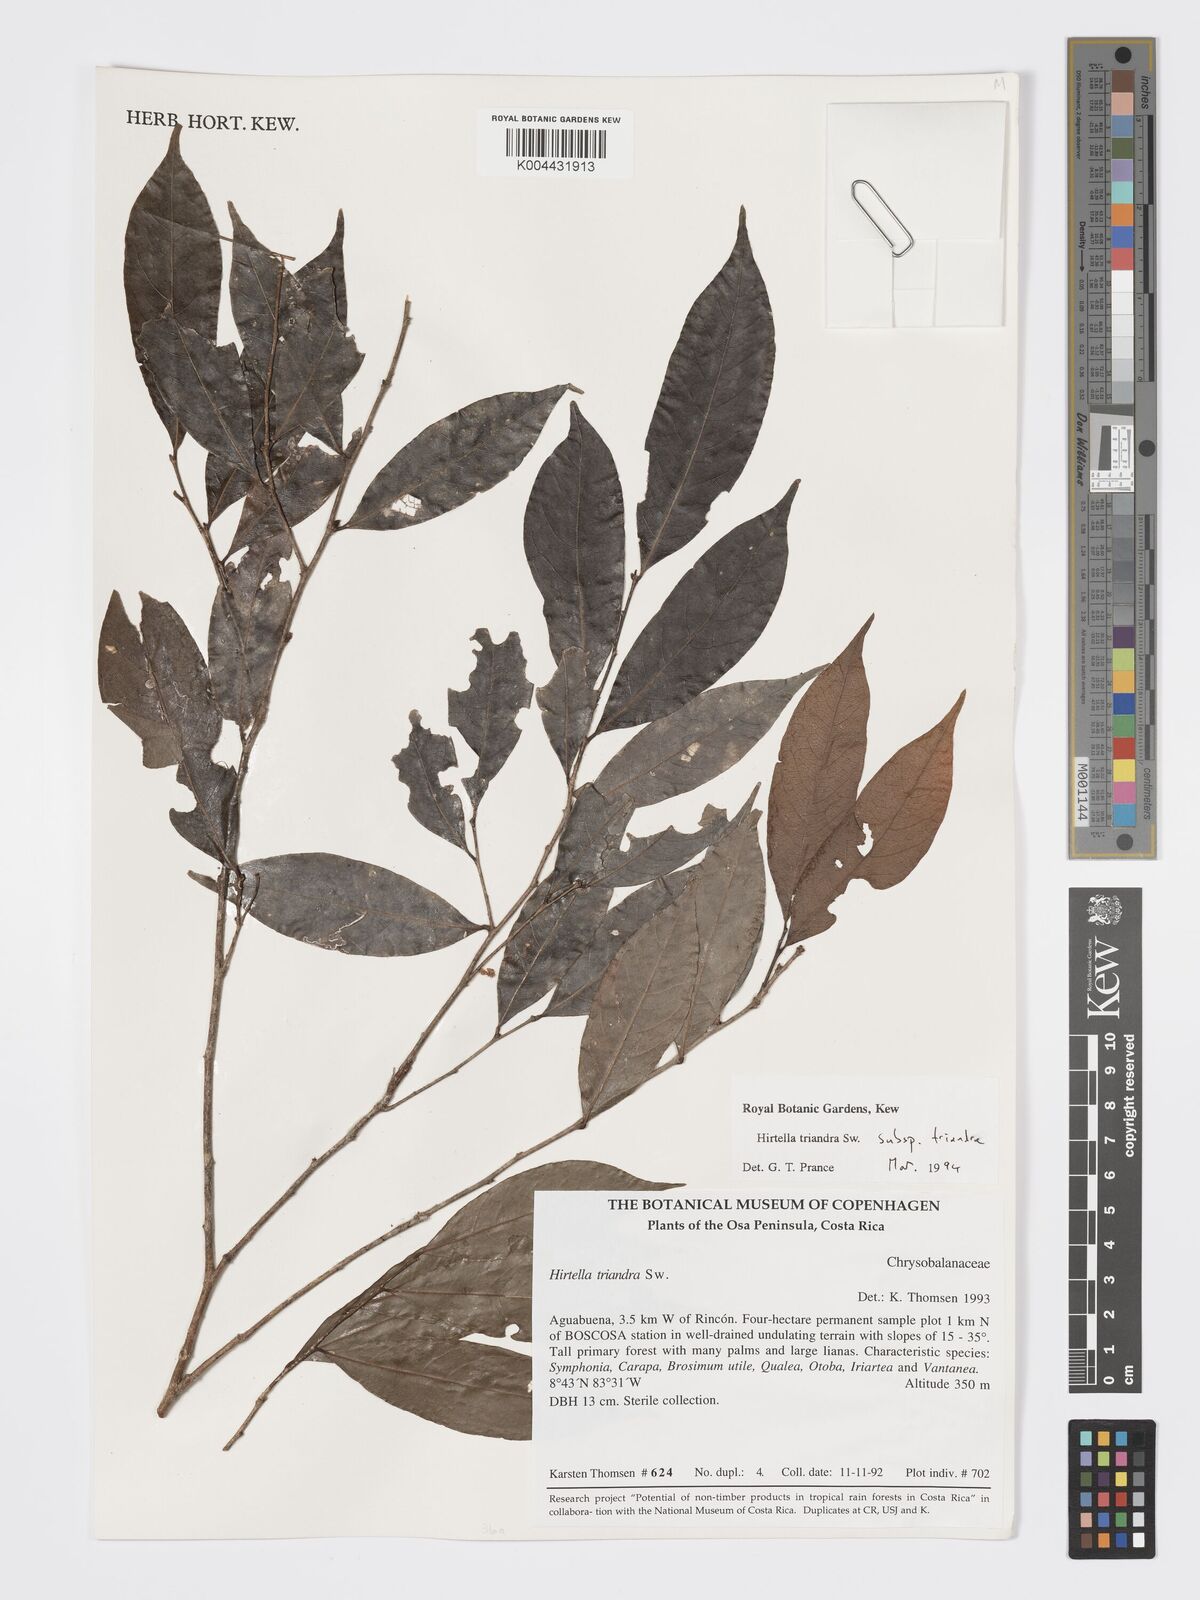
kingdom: Plantae
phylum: Tracheophyta
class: Magnoliopsida
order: Malpighiales
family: Chrysobalanaceae
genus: Hirtella
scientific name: Hirtella triandra
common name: Hairy plum
